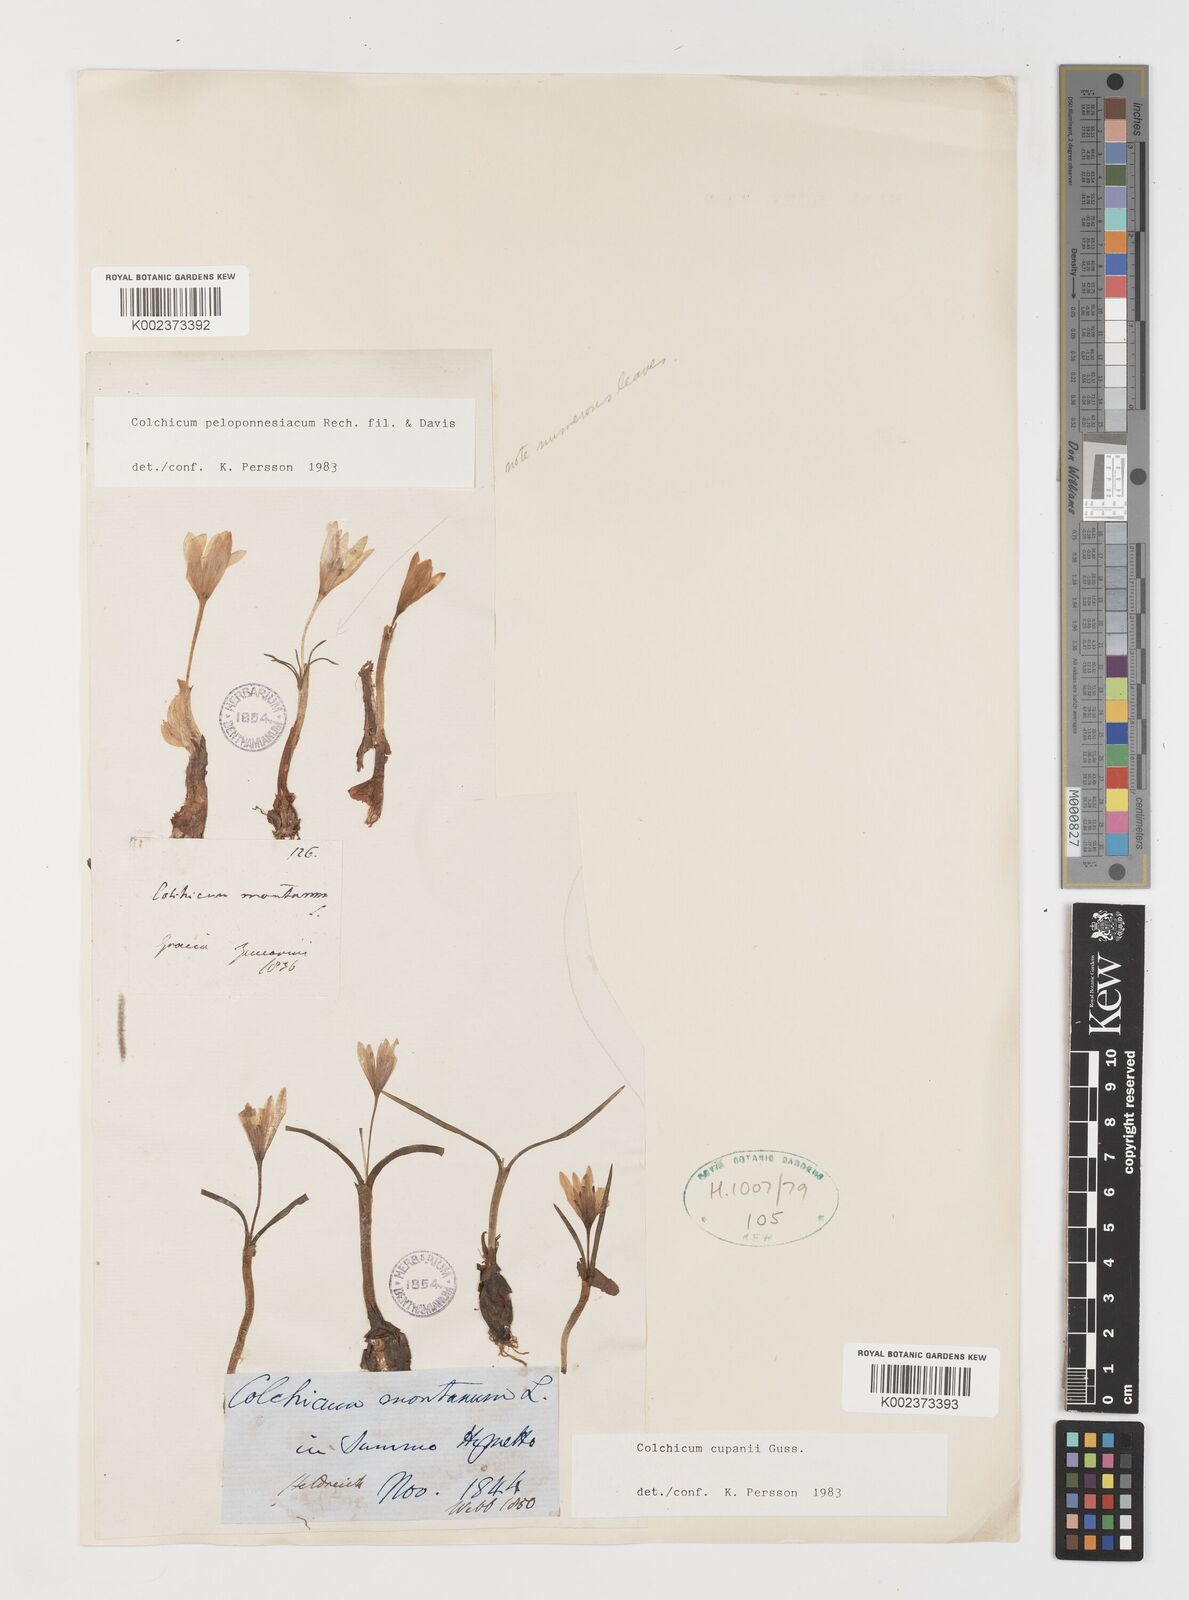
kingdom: Plantae
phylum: Tracheophyta
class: Liliopsida
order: Liliales
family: Colchicaceae
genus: Colchicum
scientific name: Colchicum peloponnesiacum
